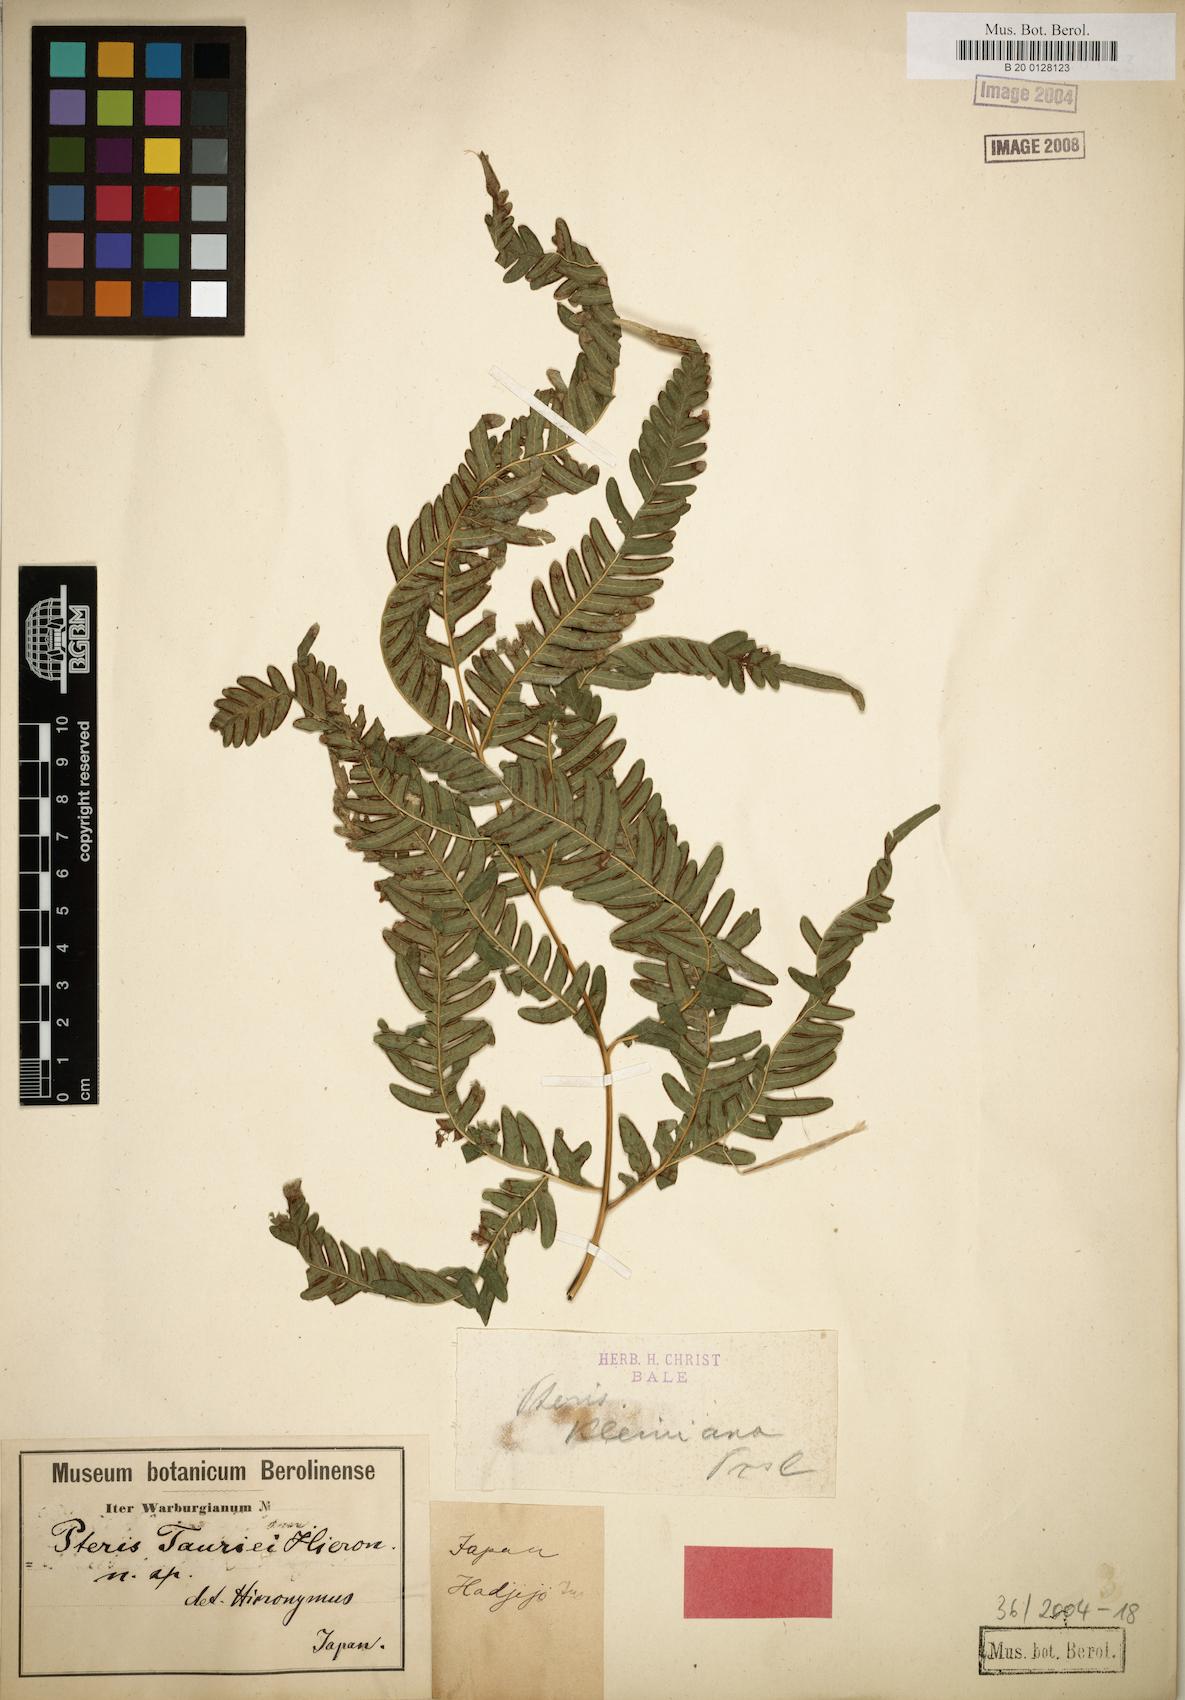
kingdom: Plantae
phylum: Tracheophyta
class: Polypodiopsida
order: Polypodiales
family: Pteridaceae
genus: Pteris
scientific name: Pteris fauriei
